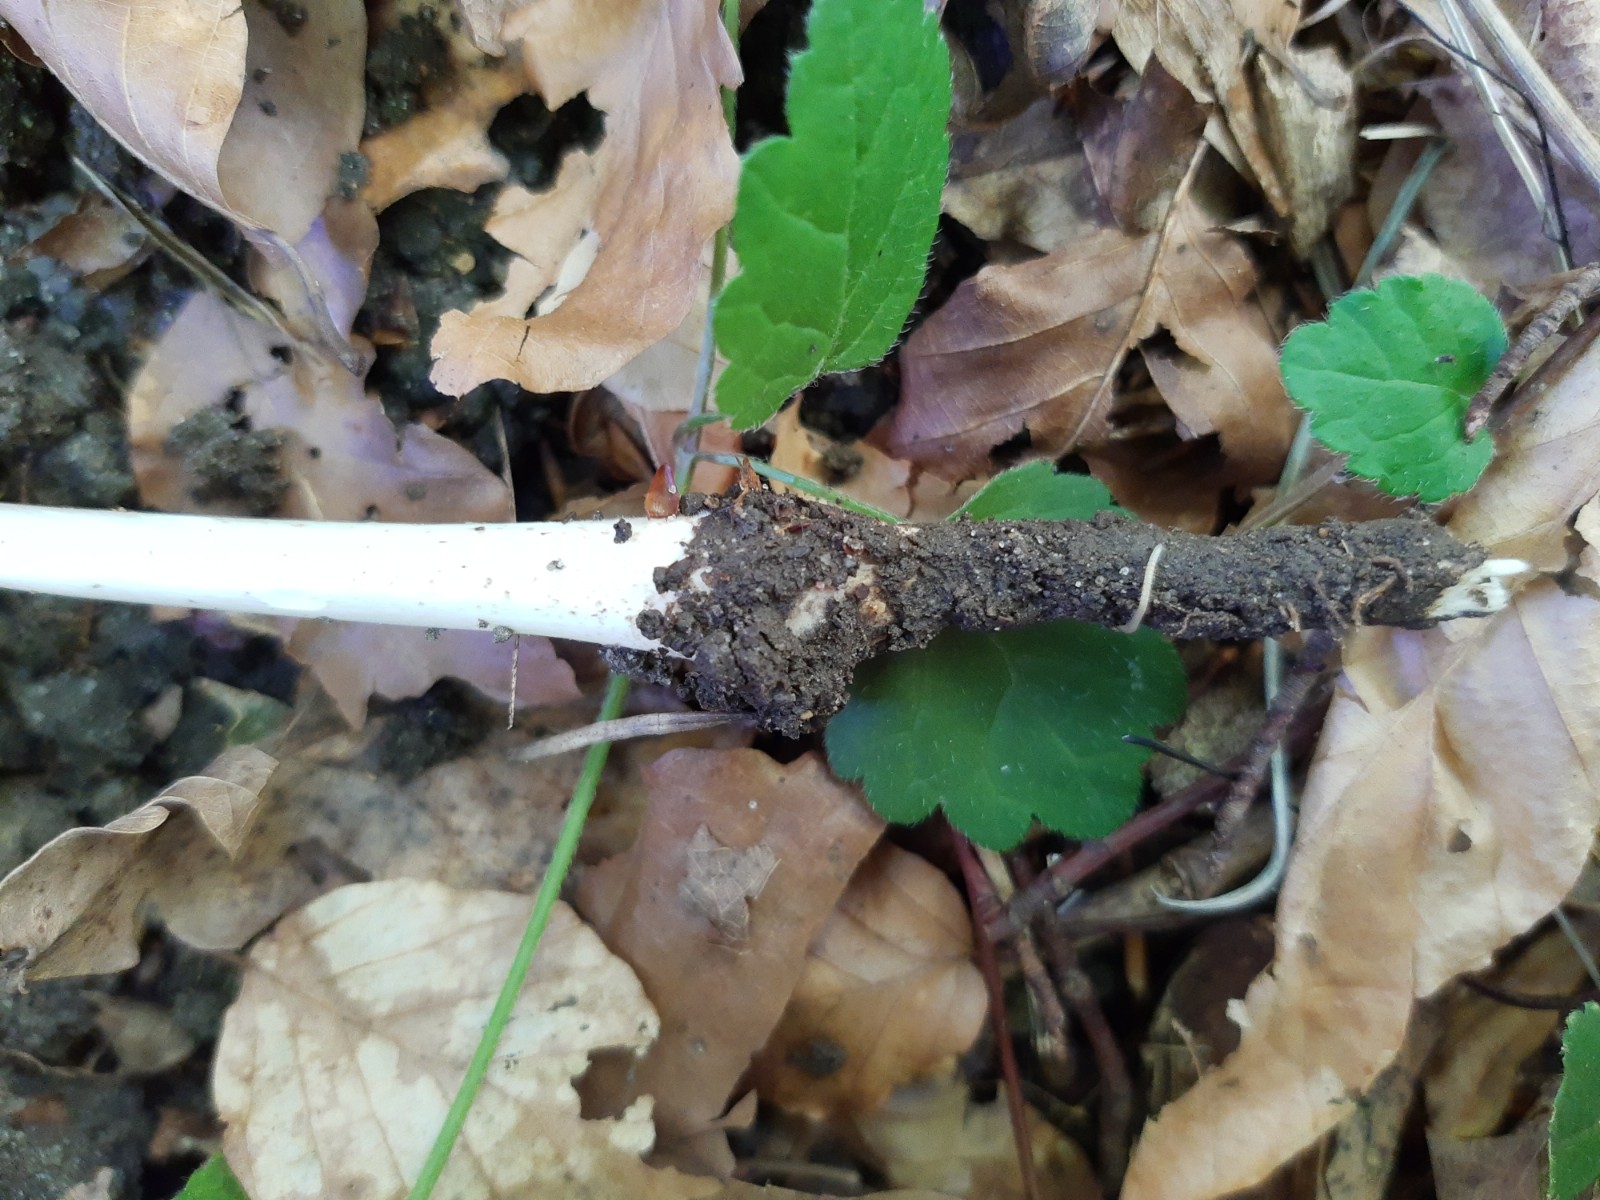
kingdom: Fungi
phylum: Basidiomycota
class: Agaricomycetes
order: Agaricales
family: Physalacriaceae
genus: Hymenopellis
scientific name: Hymenopellis radicata
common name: almindelig pælerodshat
